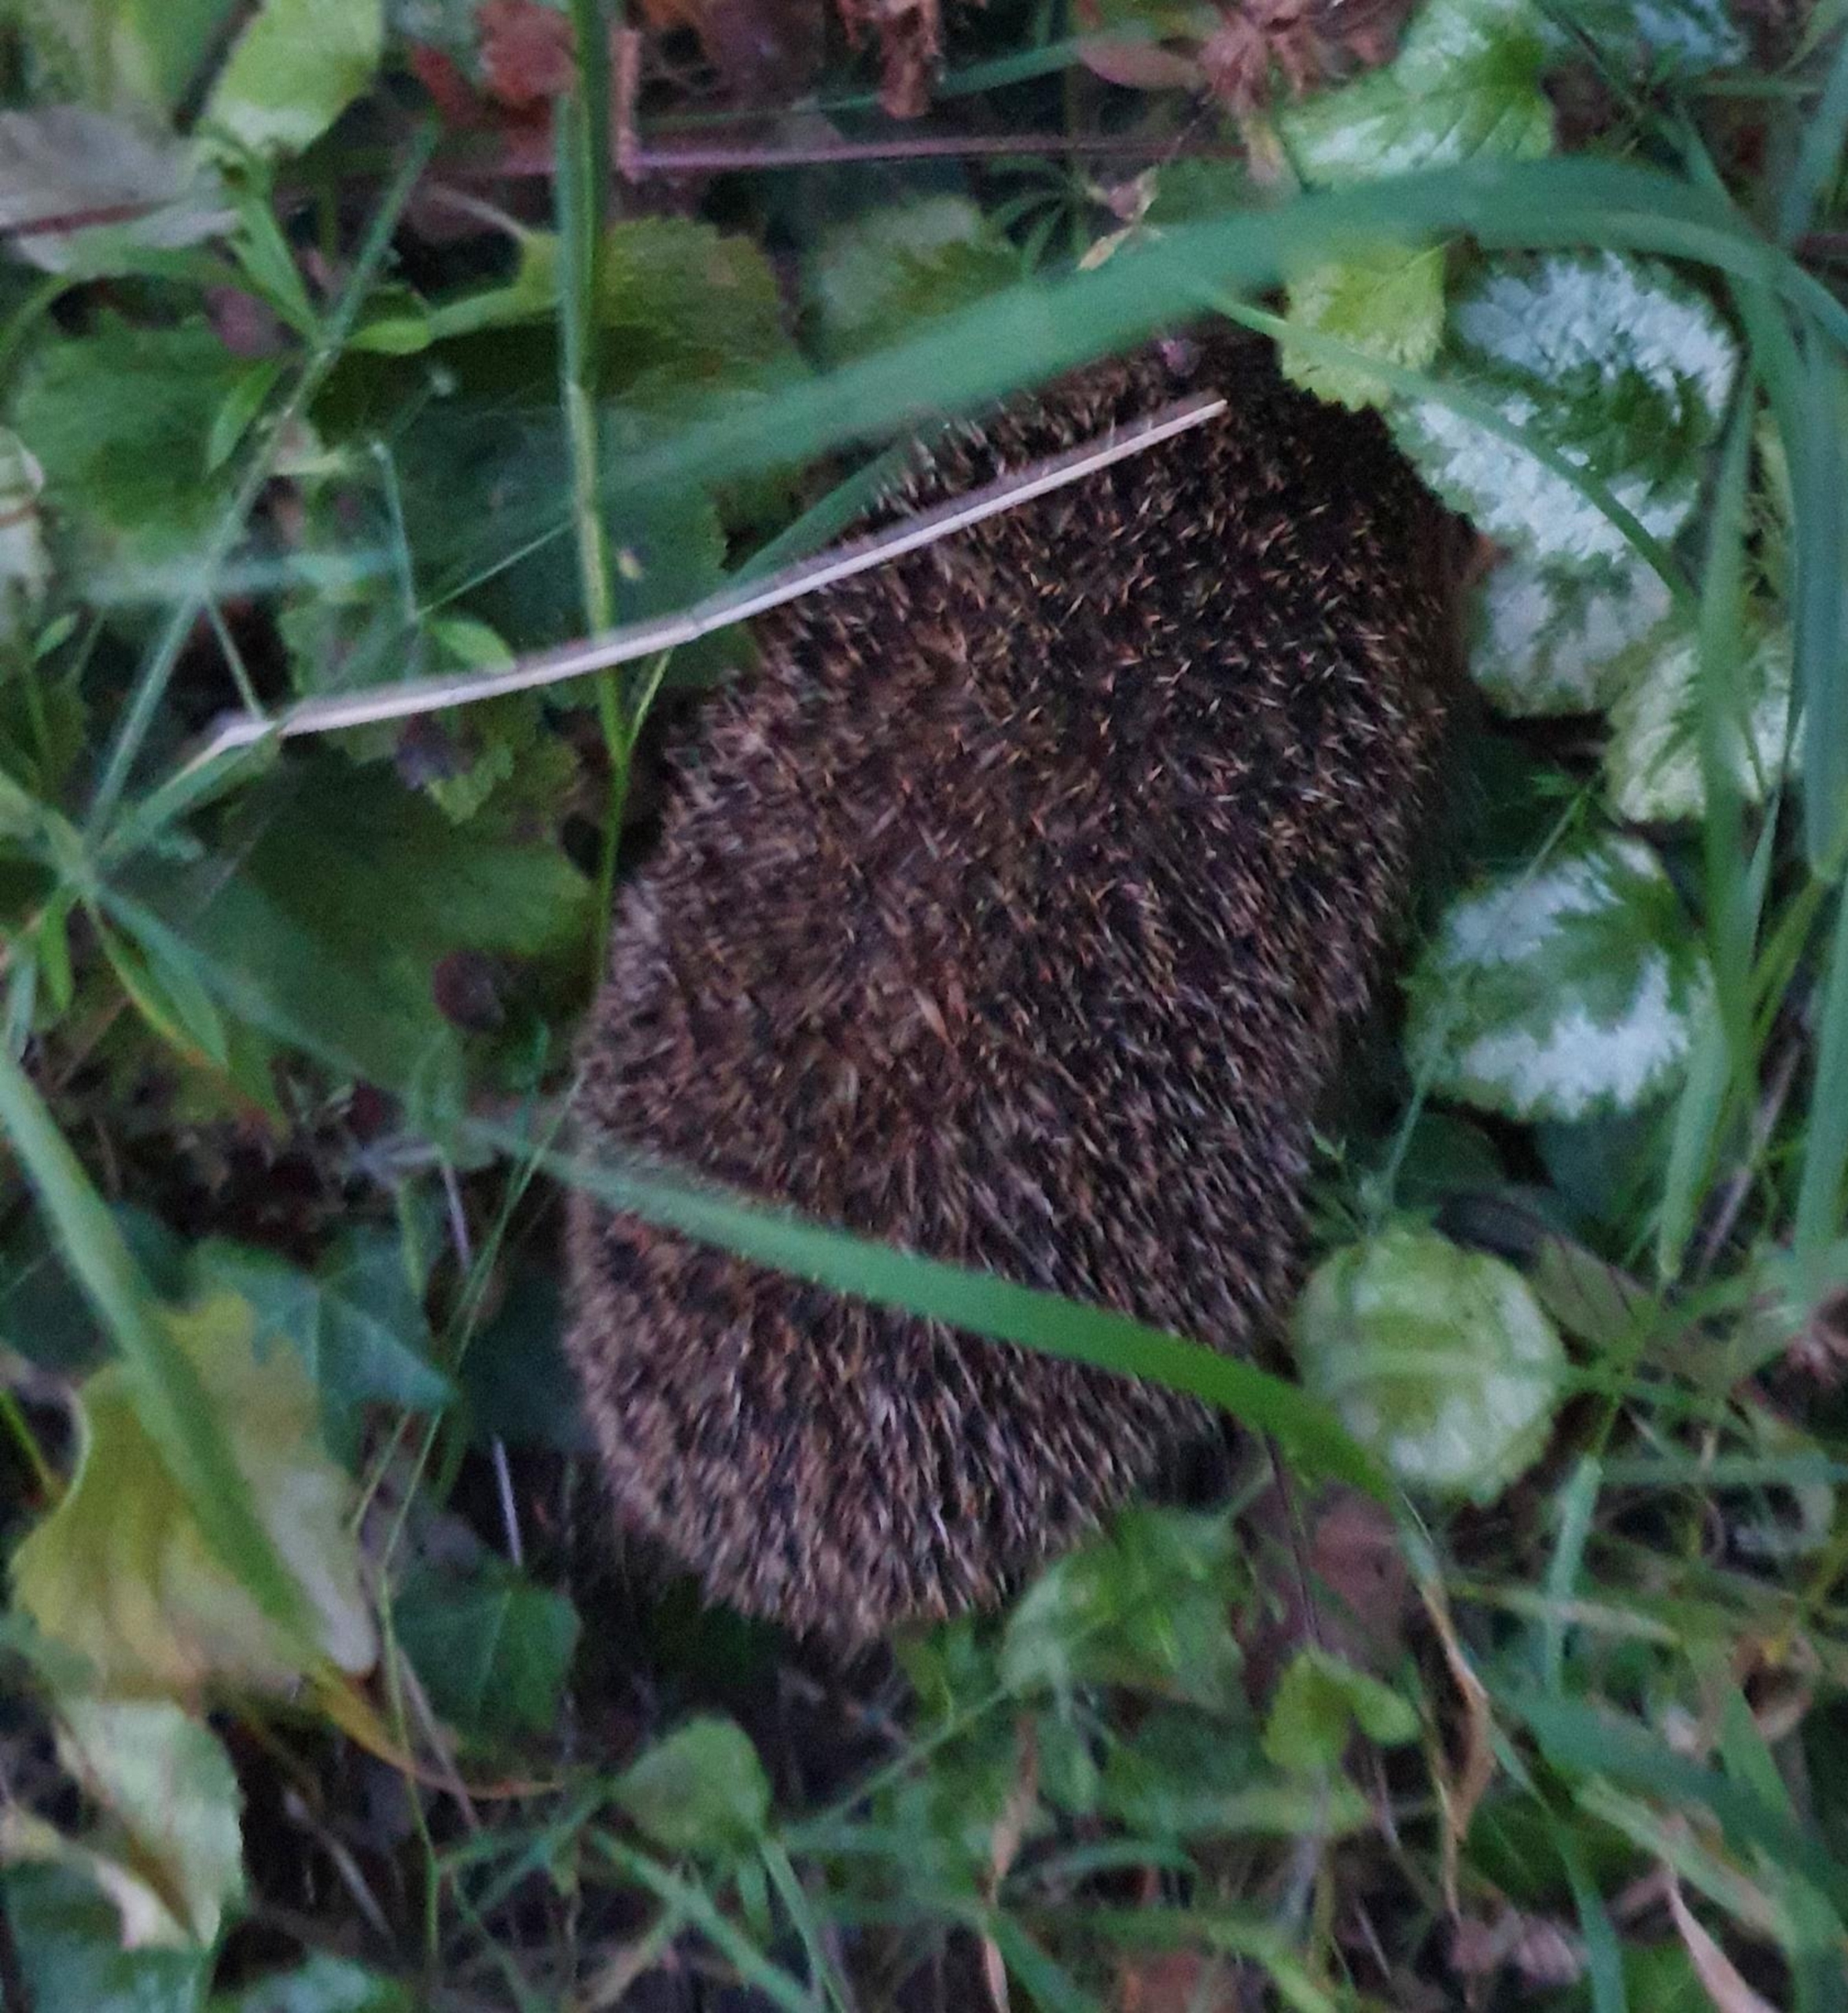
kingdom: Animalia
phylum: Chordata
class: Mammalia
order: Erinaceomorpha
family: Erinaceidae
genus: Erinaceus
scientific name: Erinaceus europaeus
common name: Pindsvin
